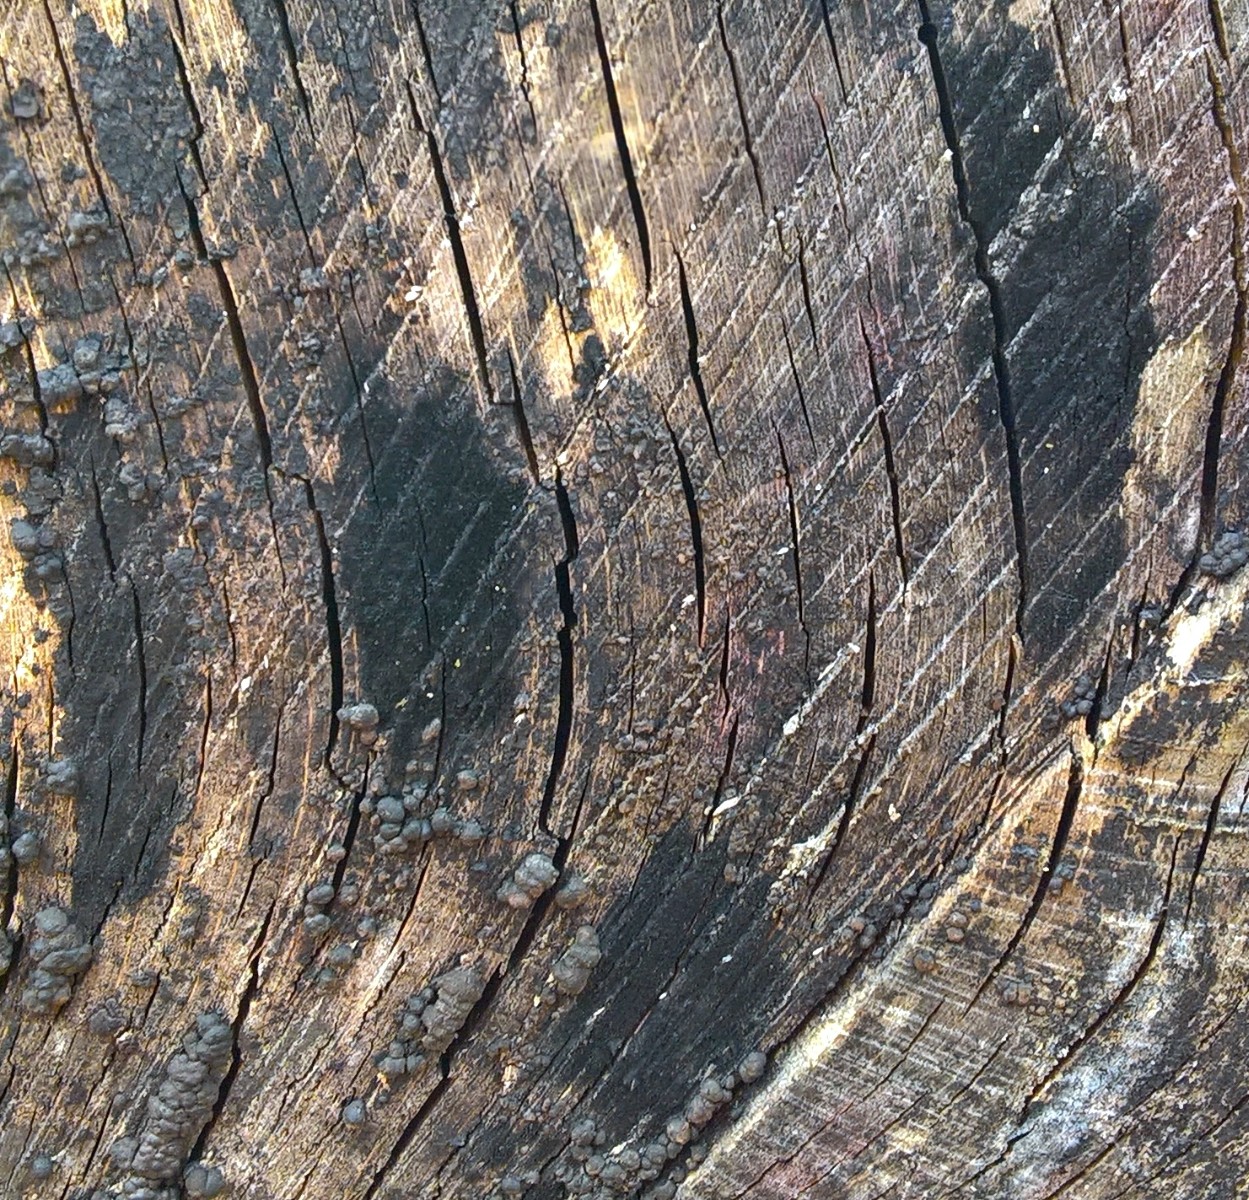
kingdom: Fungi
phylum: Ascomycota
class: Leotiomycetes
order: Helotiales
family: Helotiaceae
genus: Bispora
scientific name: Bispora pallescens
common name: måtte-snitskive
